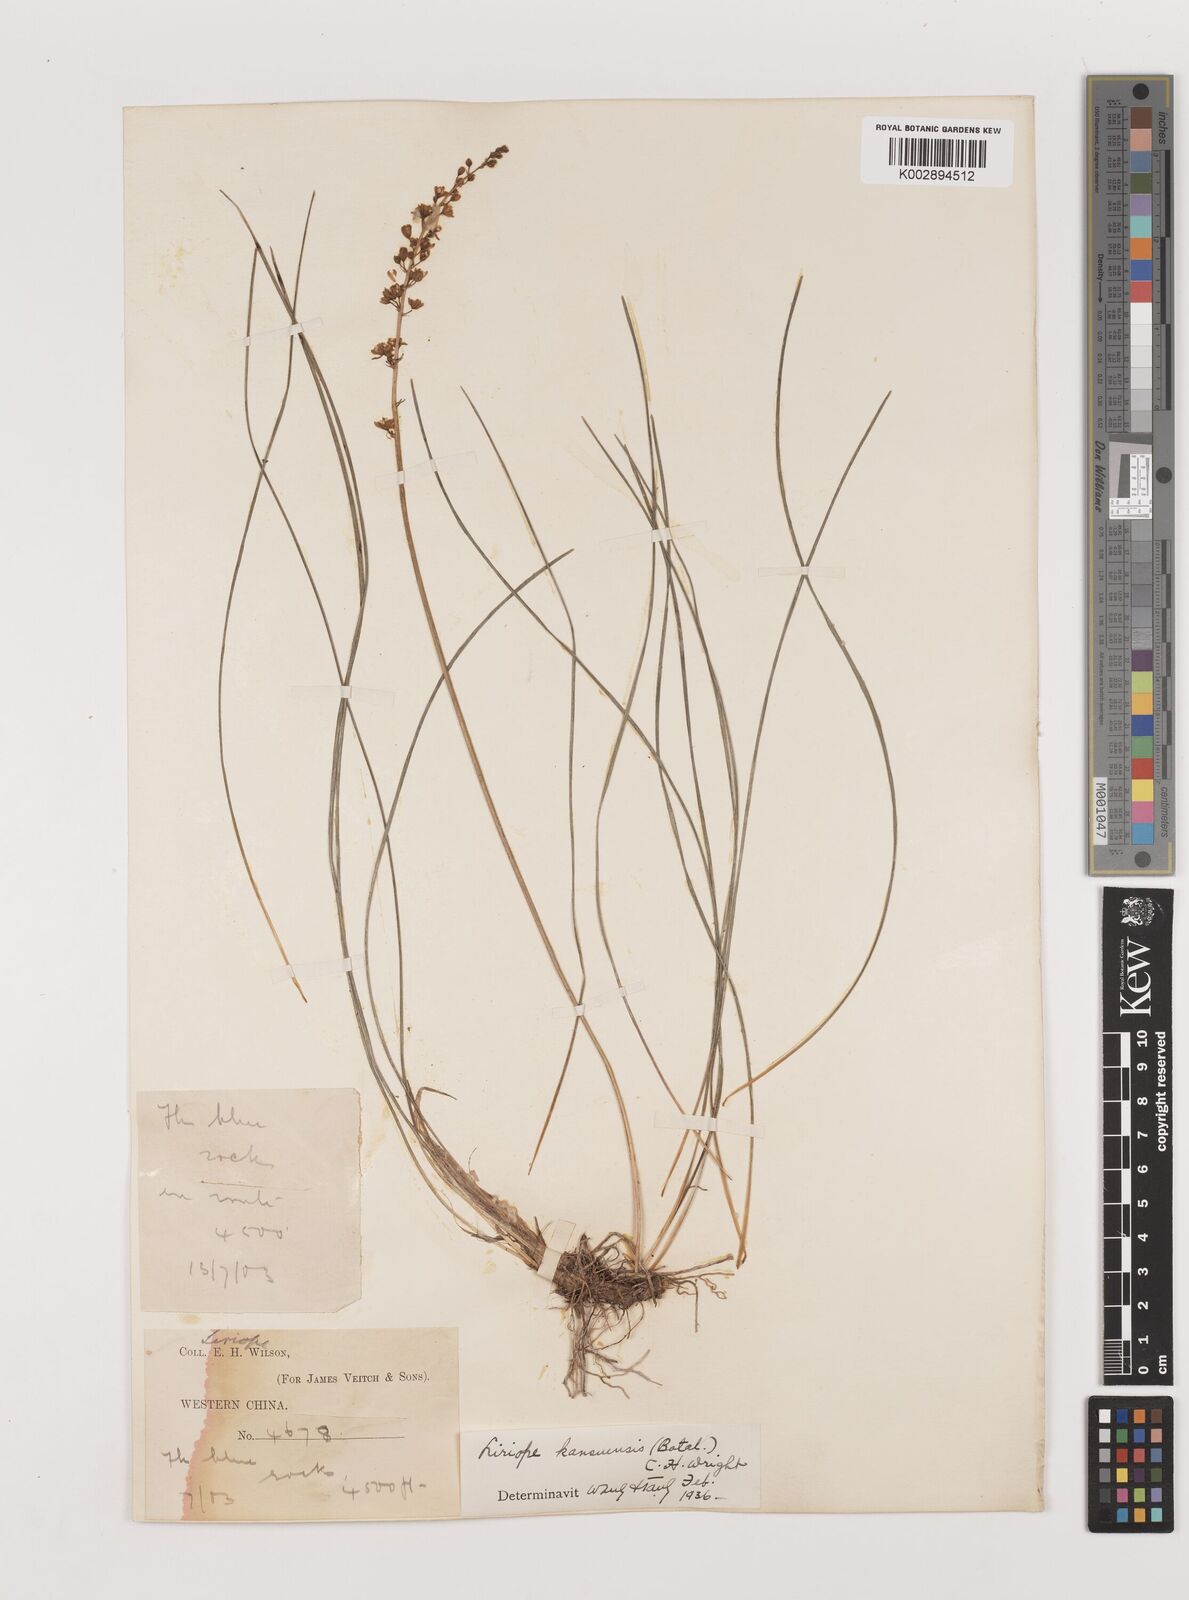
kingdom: Plantae
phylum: Tracheophyta
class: Liliopsida
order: Asparagales
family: Asparagaceae
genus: Liriope
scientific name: Liriope spicata
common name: Creeping liriope
